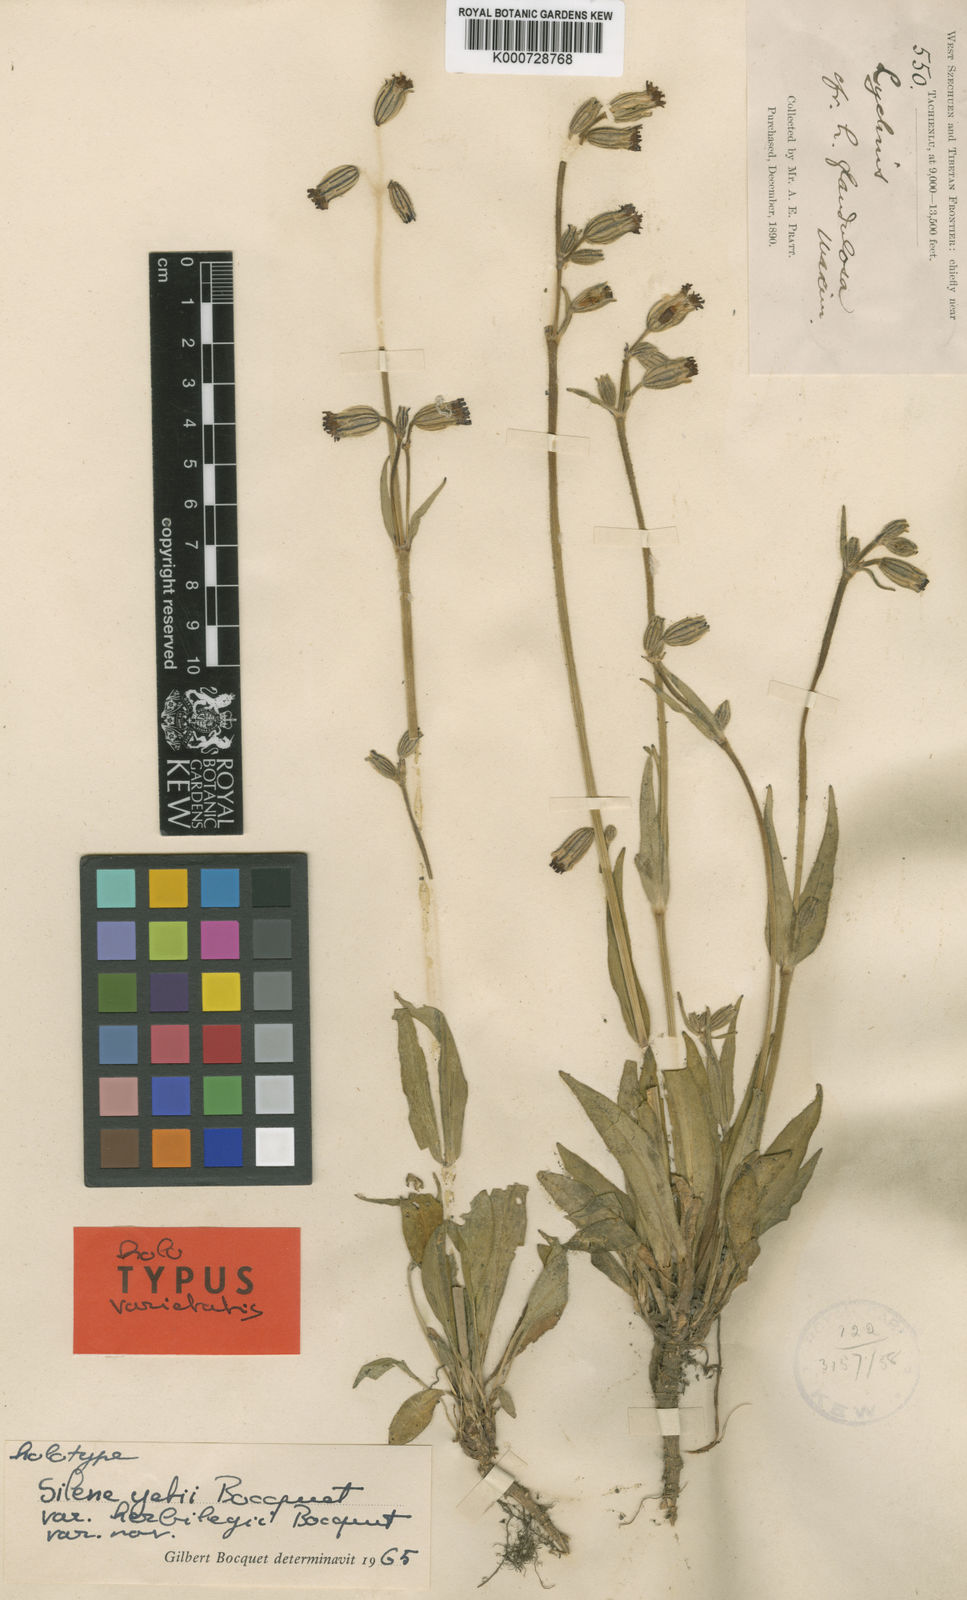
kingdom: Plantae
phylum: Tracheophyta
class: Magnoliopsida
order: Caryophyllales
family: Caryophyllaceae
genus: Silene
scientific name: Silene yetii
